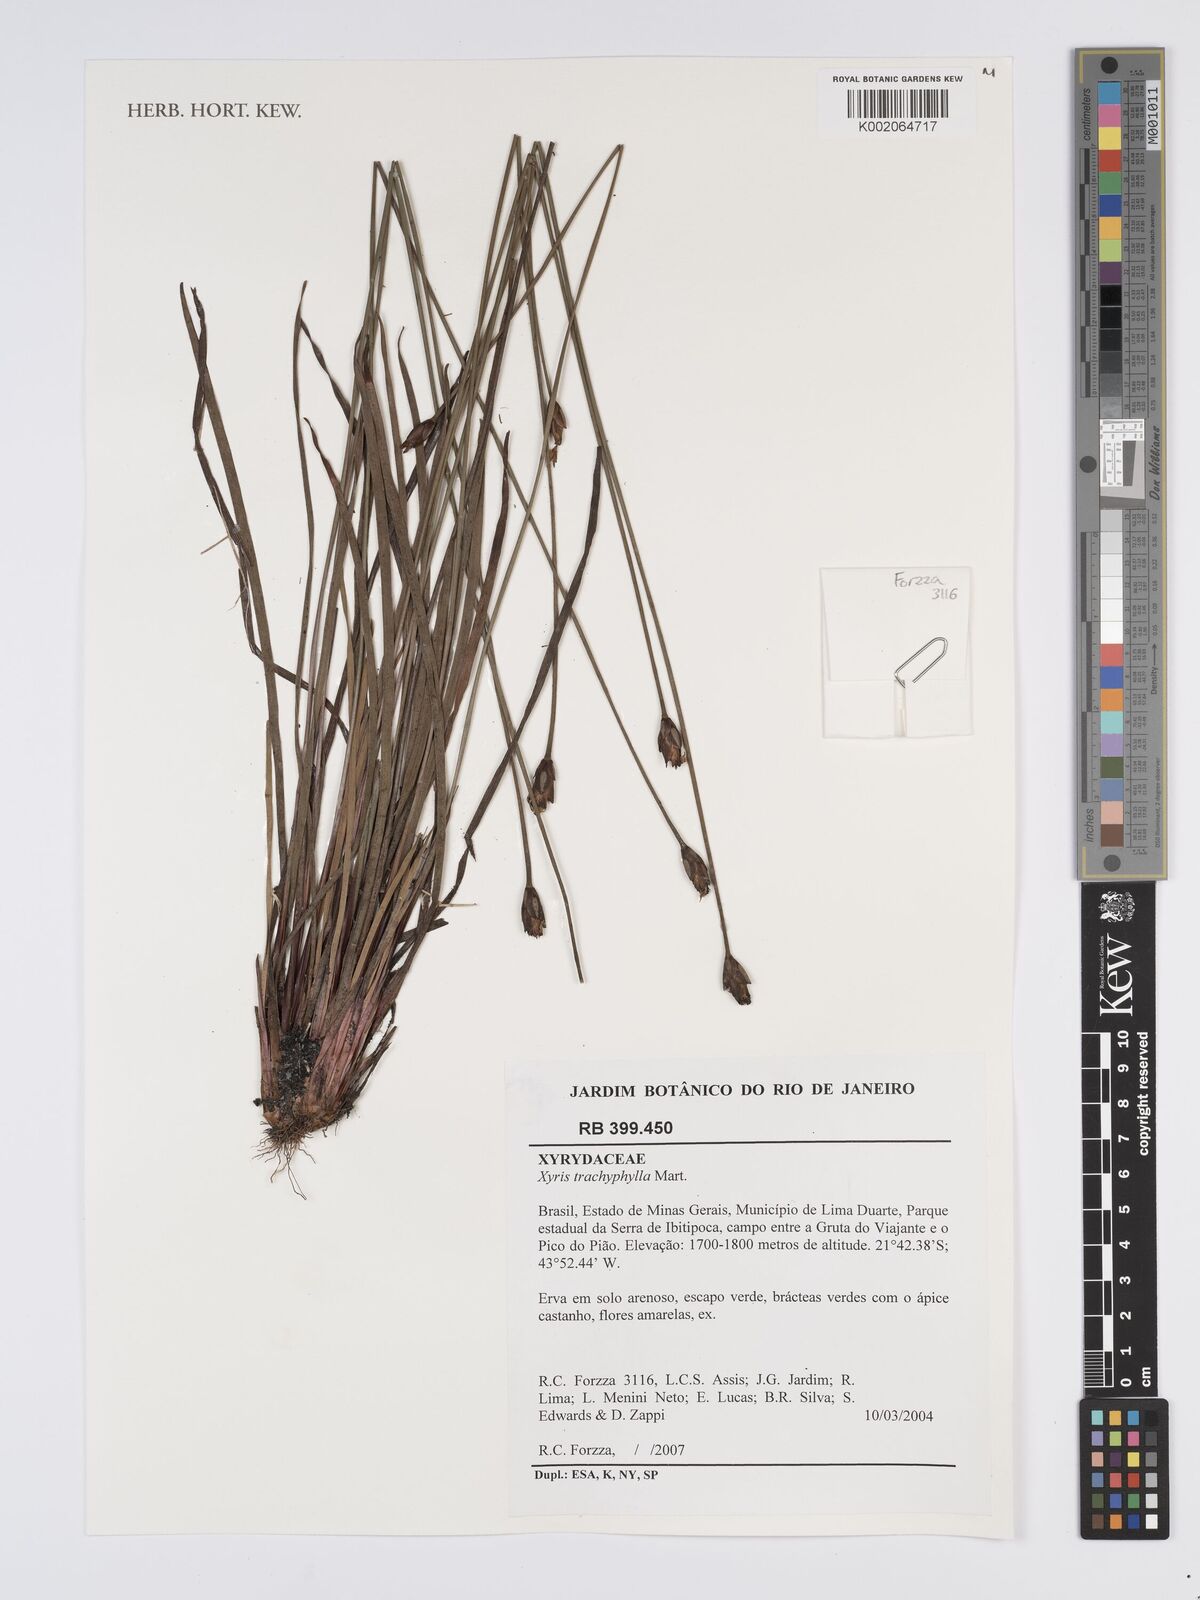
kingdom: Plantae
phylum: Tracheophyta
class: Liliopsida
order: Poales
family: Xyridaceae
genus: Xyris
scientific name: Xyris trachyphylla
